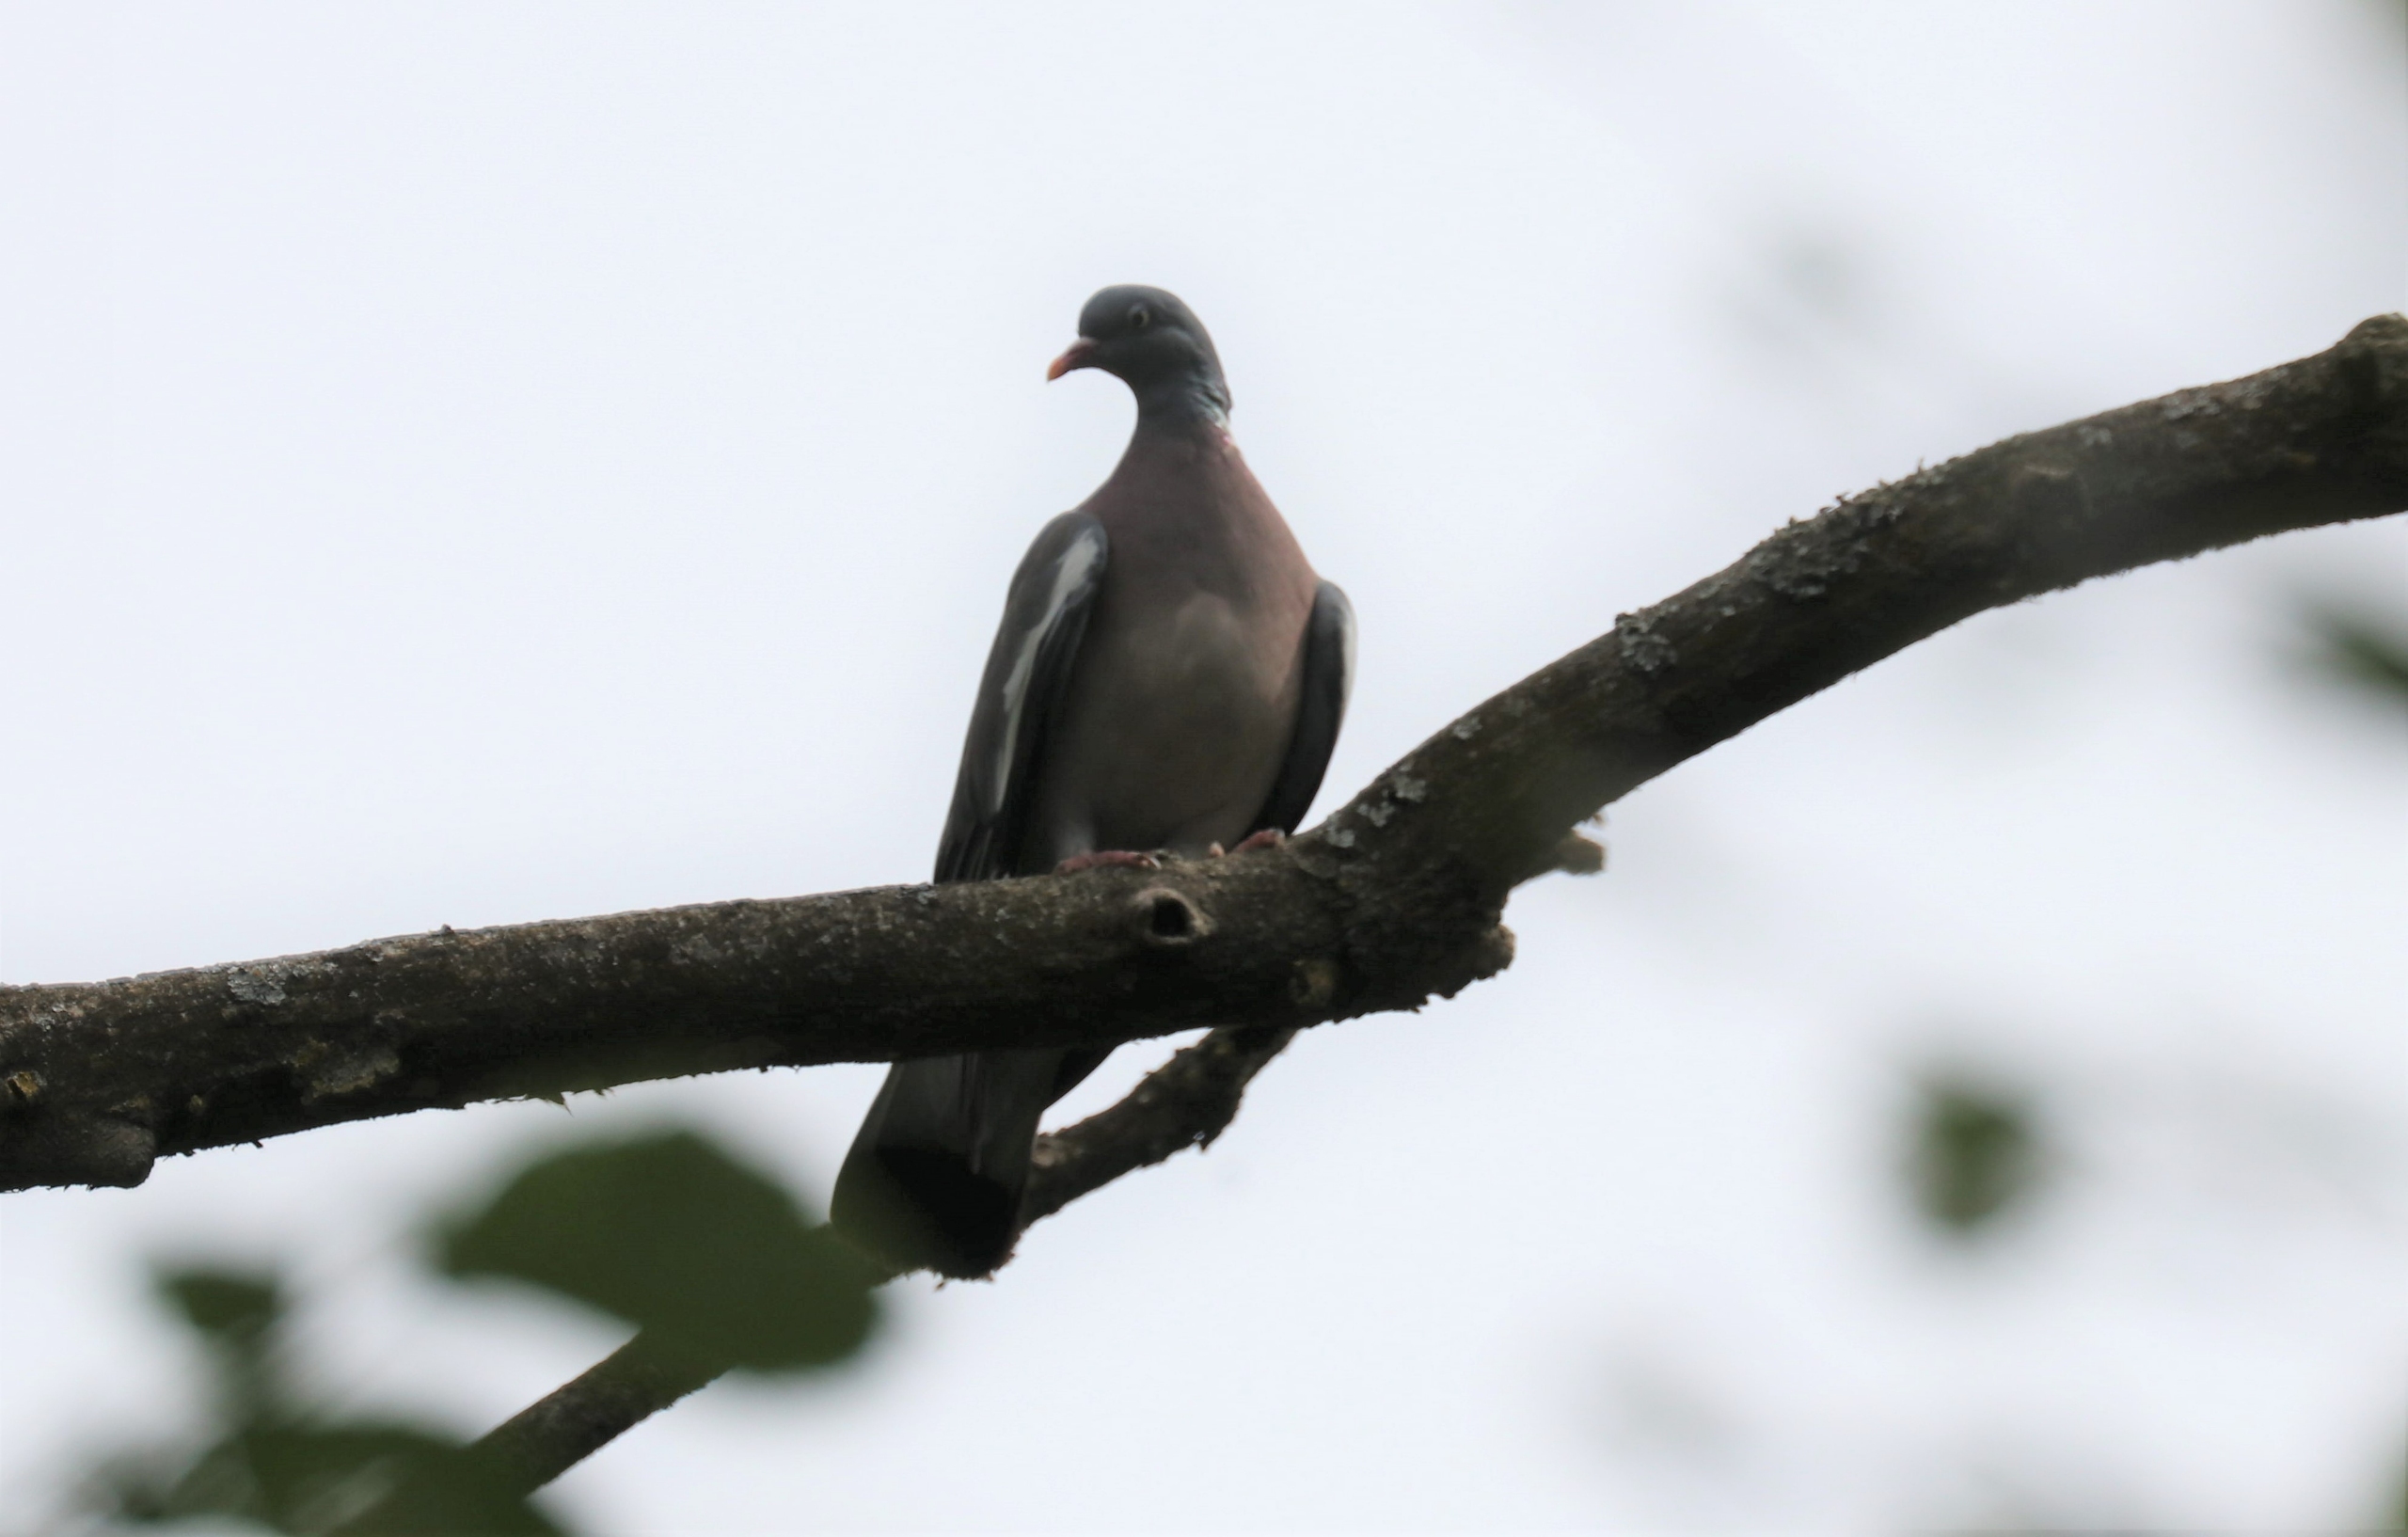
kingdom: Animalia
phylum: Chordata
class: Aves
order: Columbiformes
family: Columbidae
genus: Columba
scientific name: Columba palumbus
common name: Ringdue
